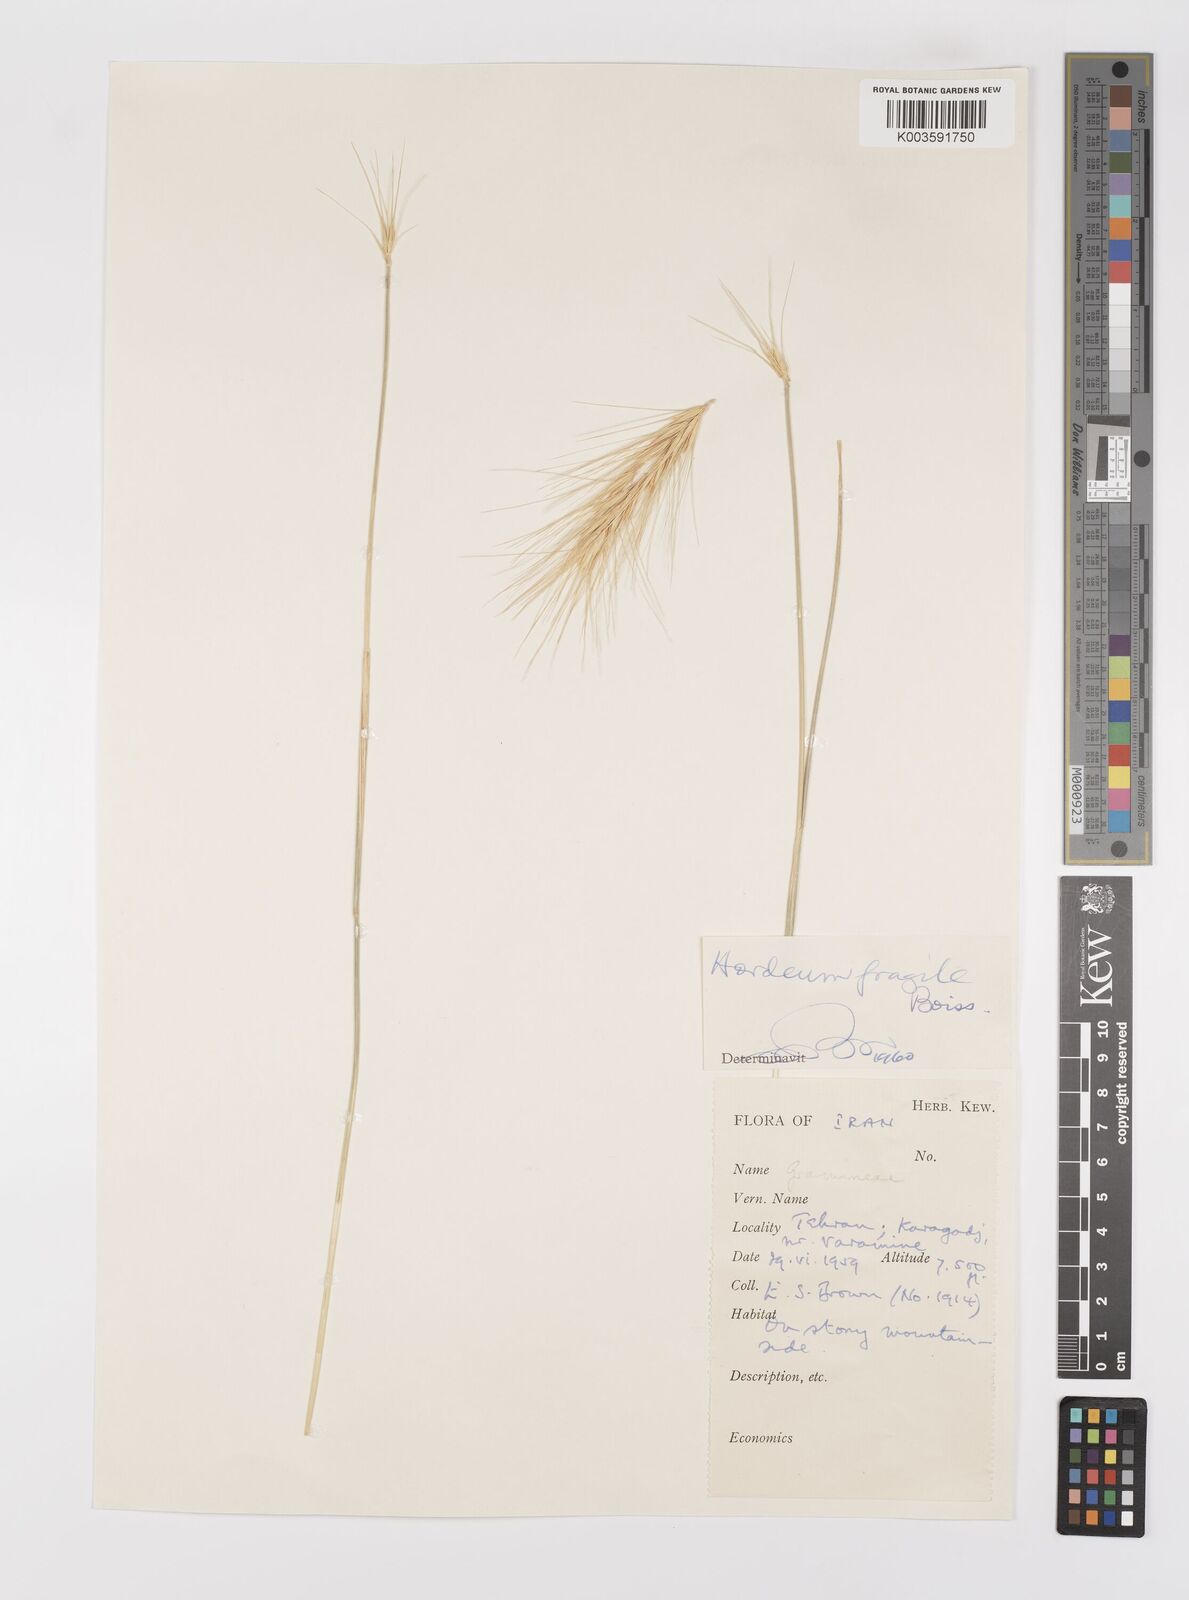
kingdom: Plantae
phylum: Tracheophyta
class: Liliopsida
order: Poales
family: Poaceae
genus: Psathyrostachys
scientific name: Psathyrostachys fragilis
